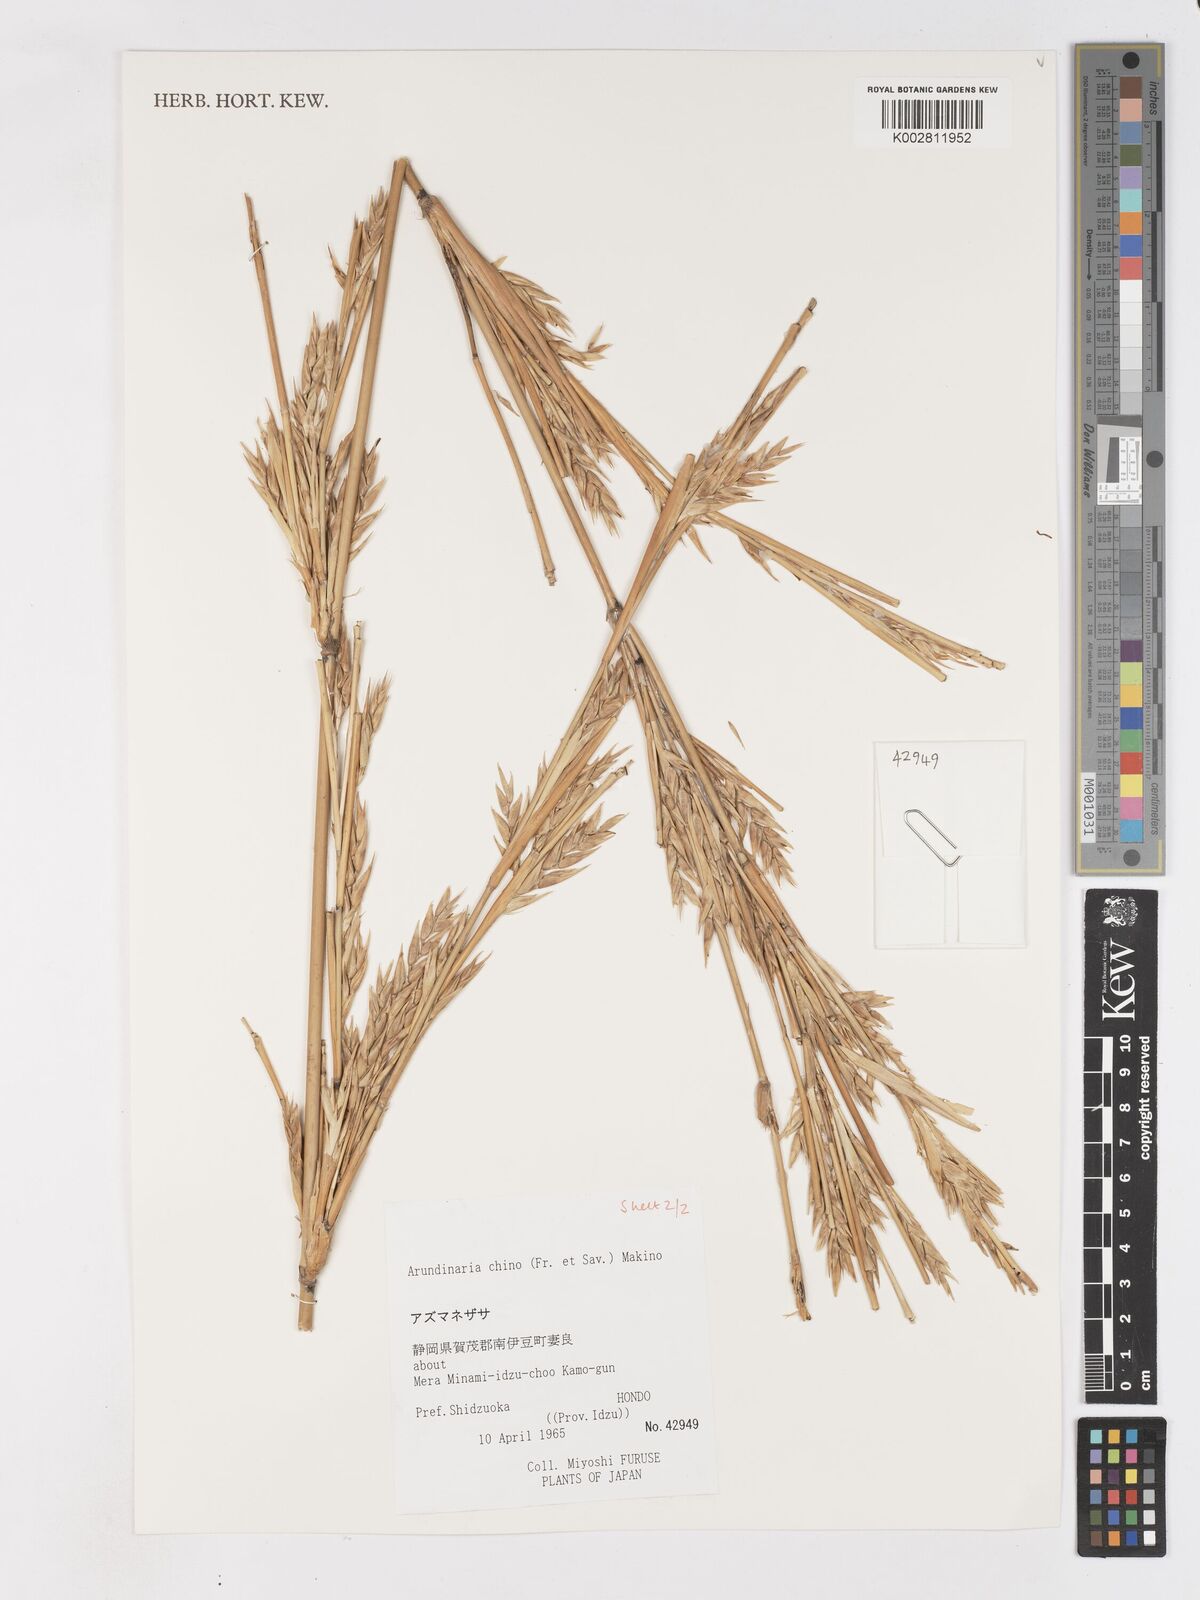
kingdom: Plantae
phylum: Tracheophyta
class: Liliopsida
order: Poales
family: Poaceae
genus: Pleioblastus
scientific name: Pleioblastus argenteostriatus
